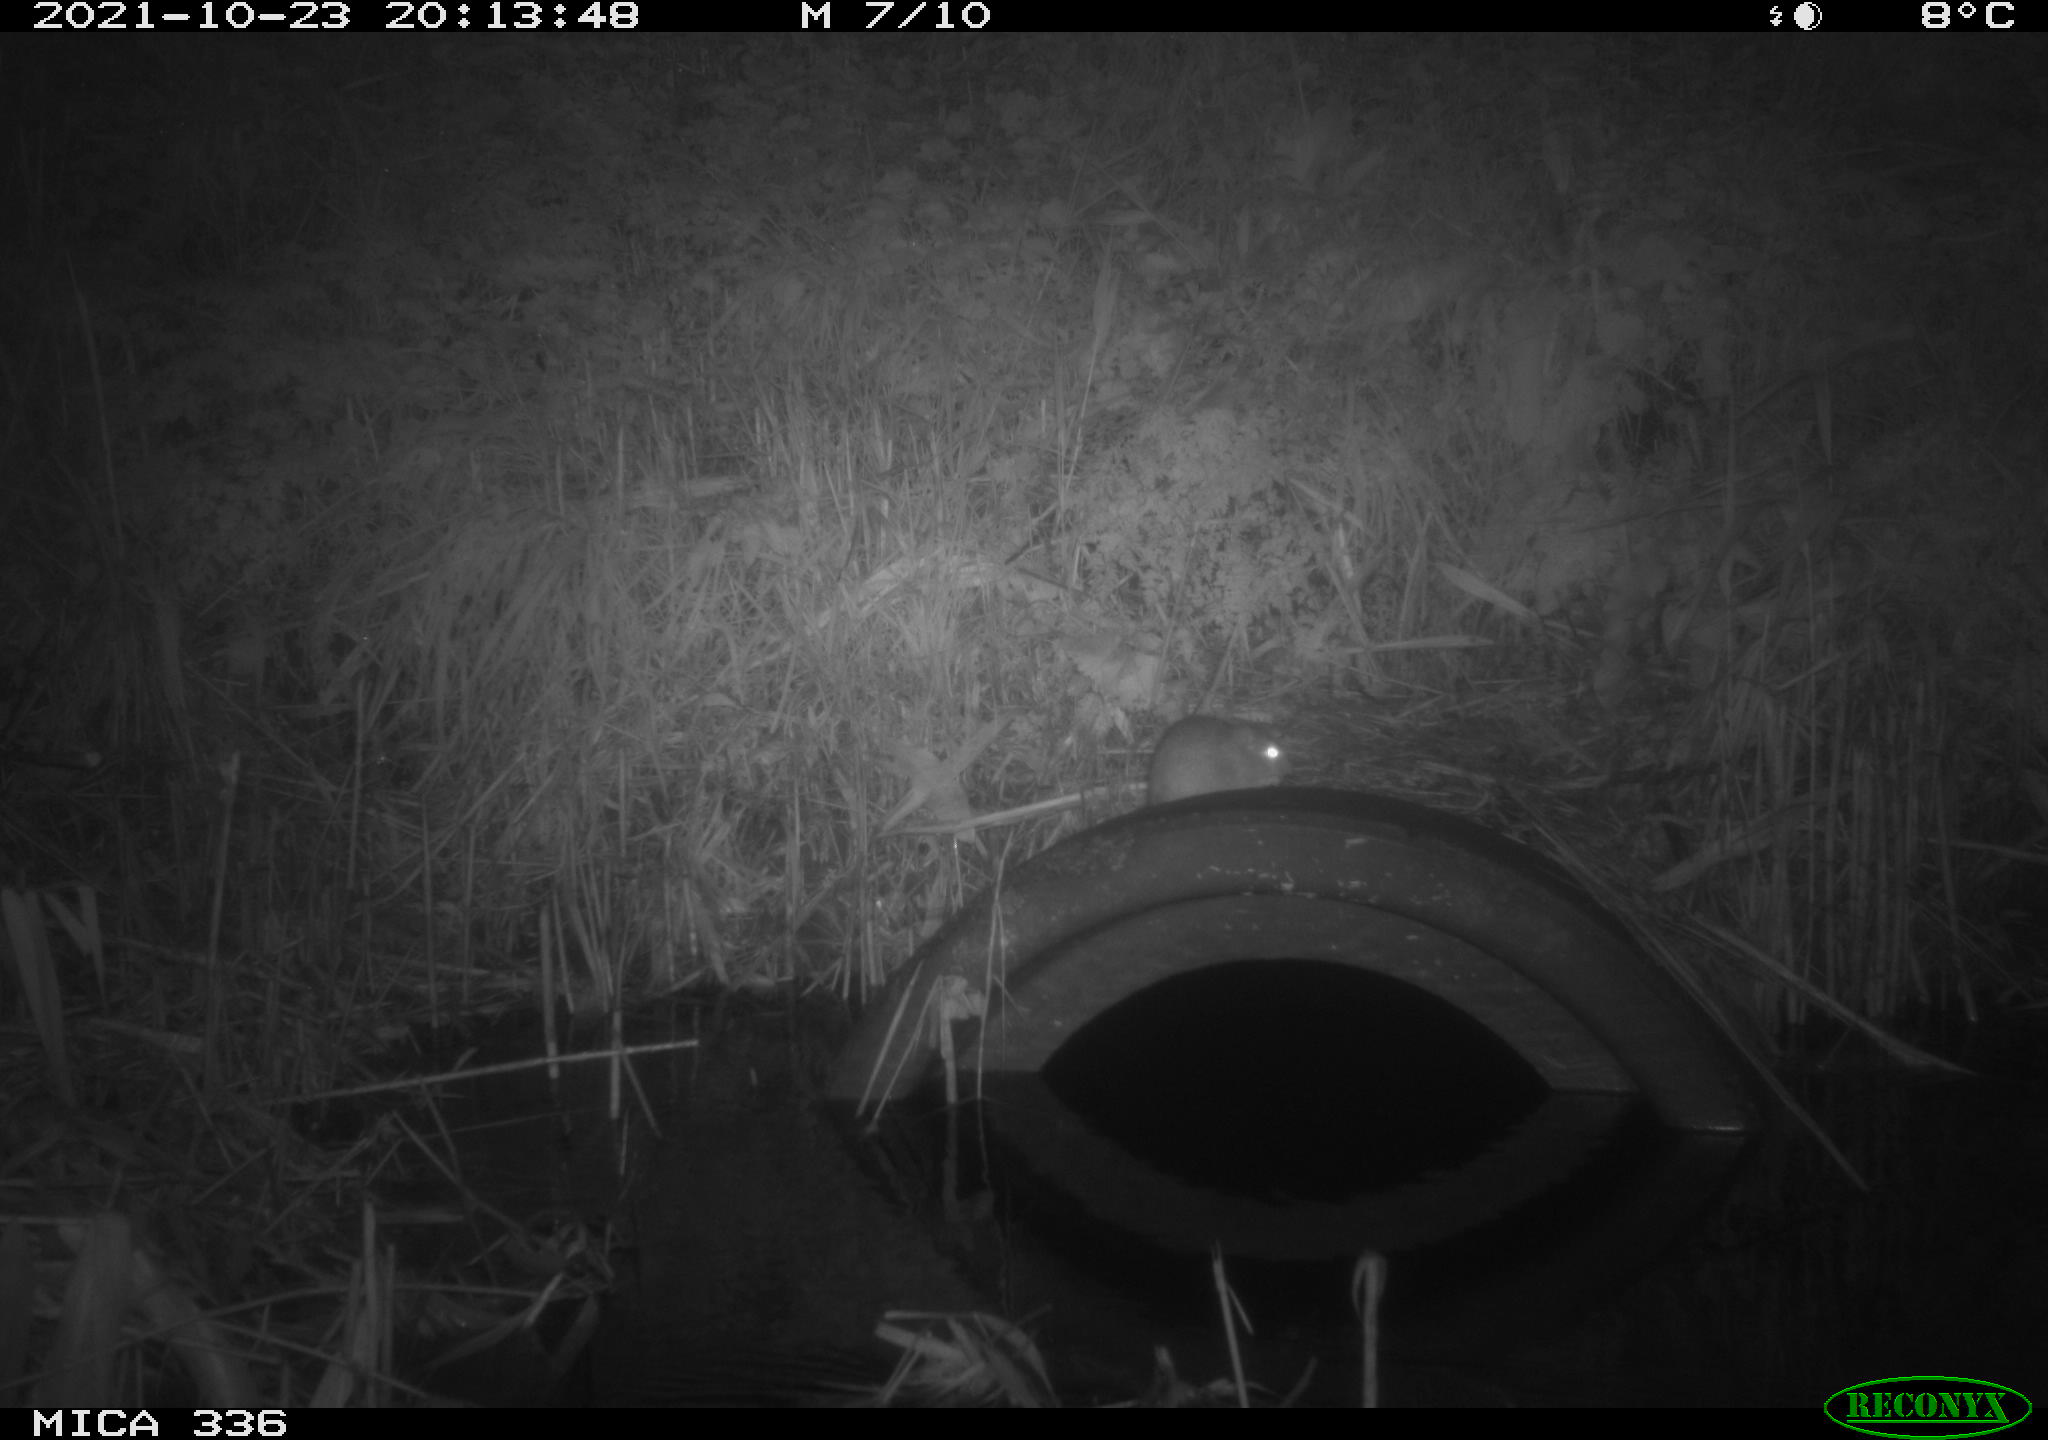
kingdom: Animalia
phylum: Chordata
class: Mammalia
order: Rodentia
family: Muridae
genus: Rattus
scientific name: Rattus norvegicus
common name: Brown rat
